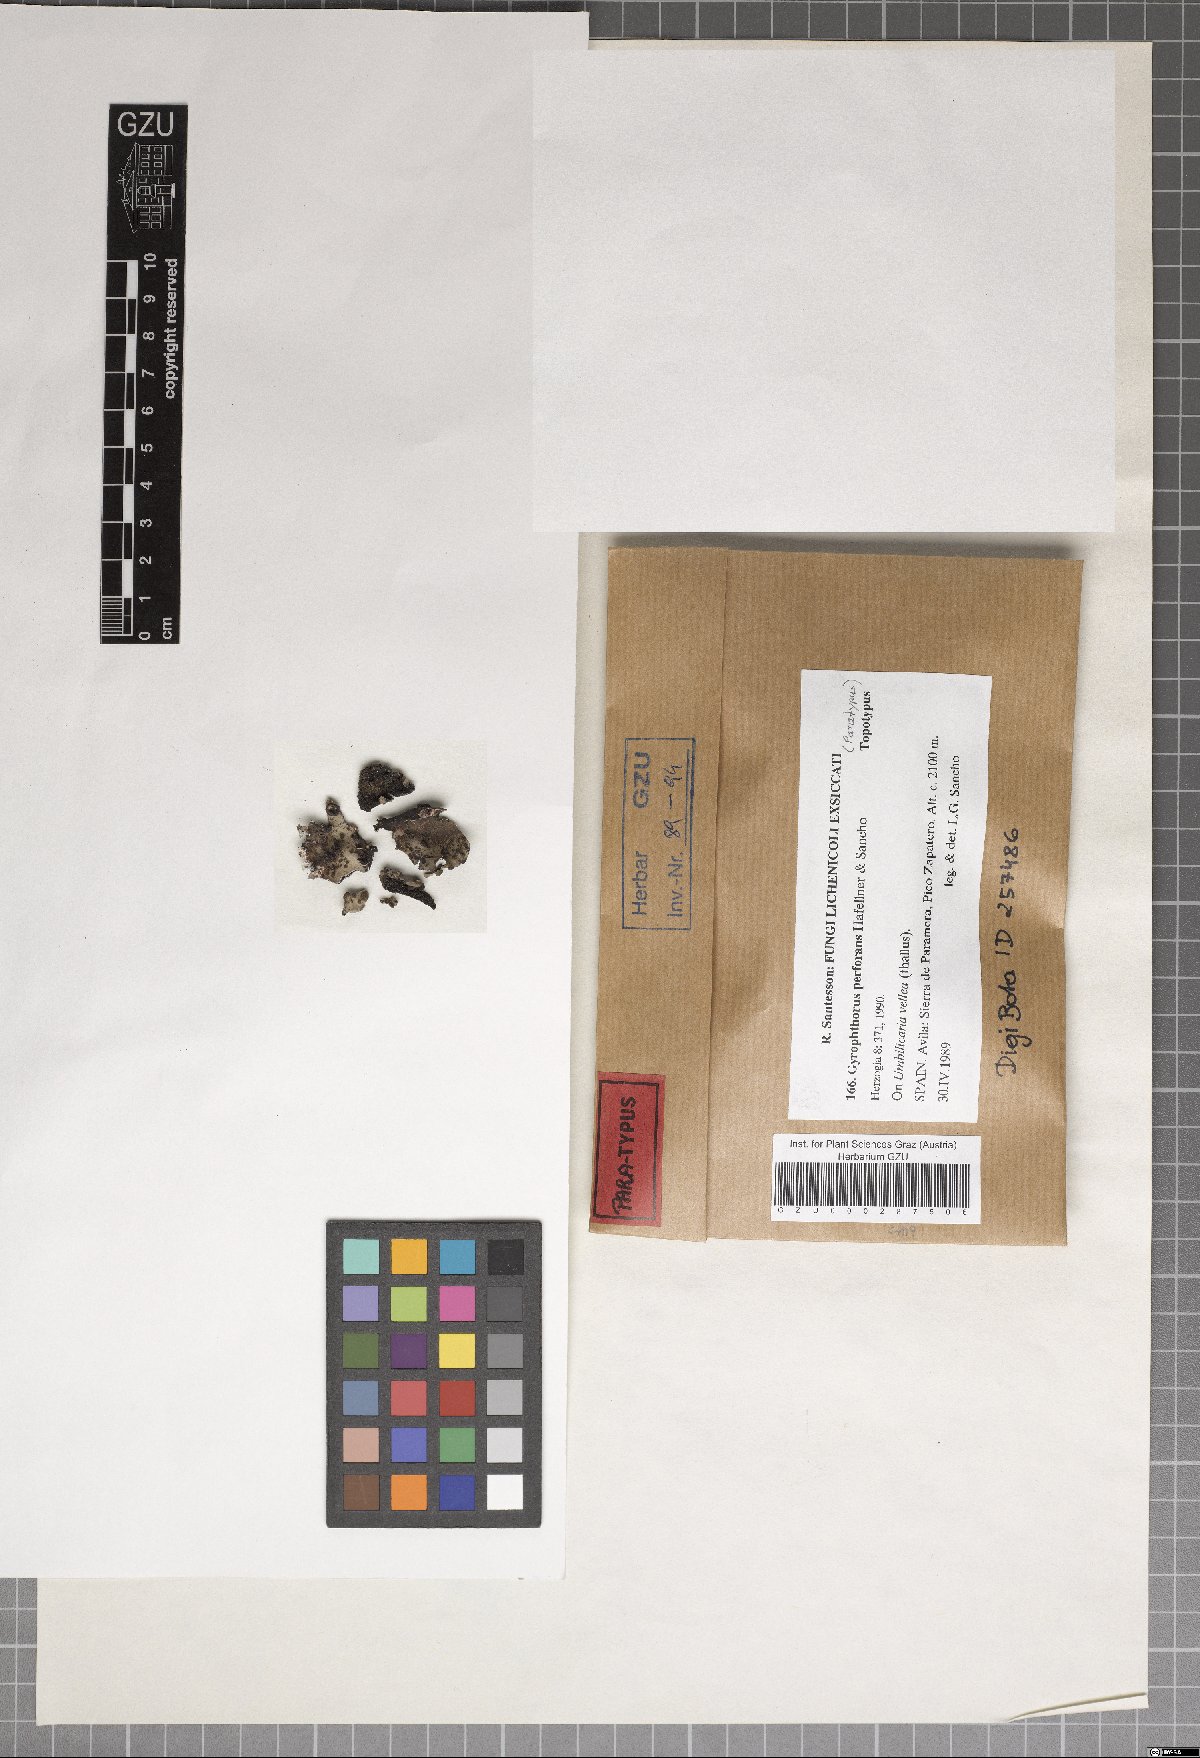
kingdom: Fungi
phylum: Ascomycota
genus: Gyrophthorus
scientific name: Gyrophthorus perforans
